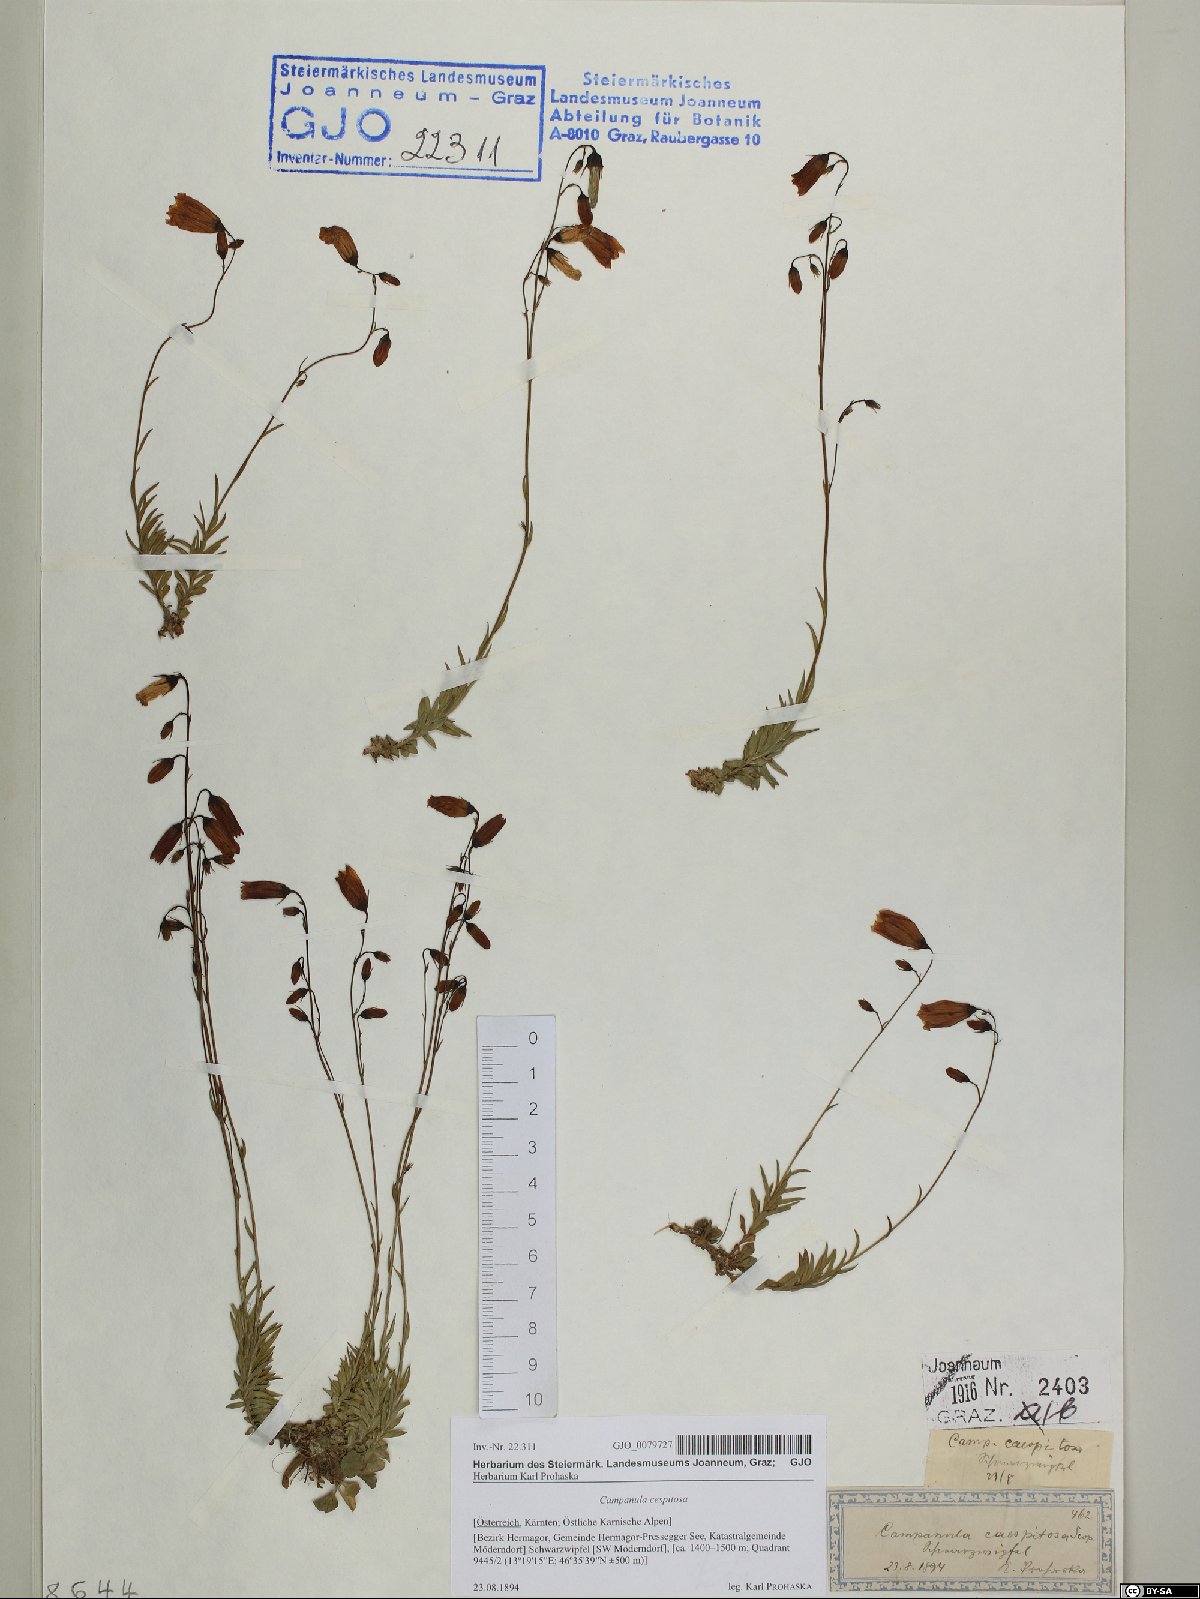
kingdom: Plantae
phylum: Tracheophyta
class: Magnoliopsida
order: Asterales
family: Campanulaceae
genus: Campanula
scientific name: Campanula cespitosa
